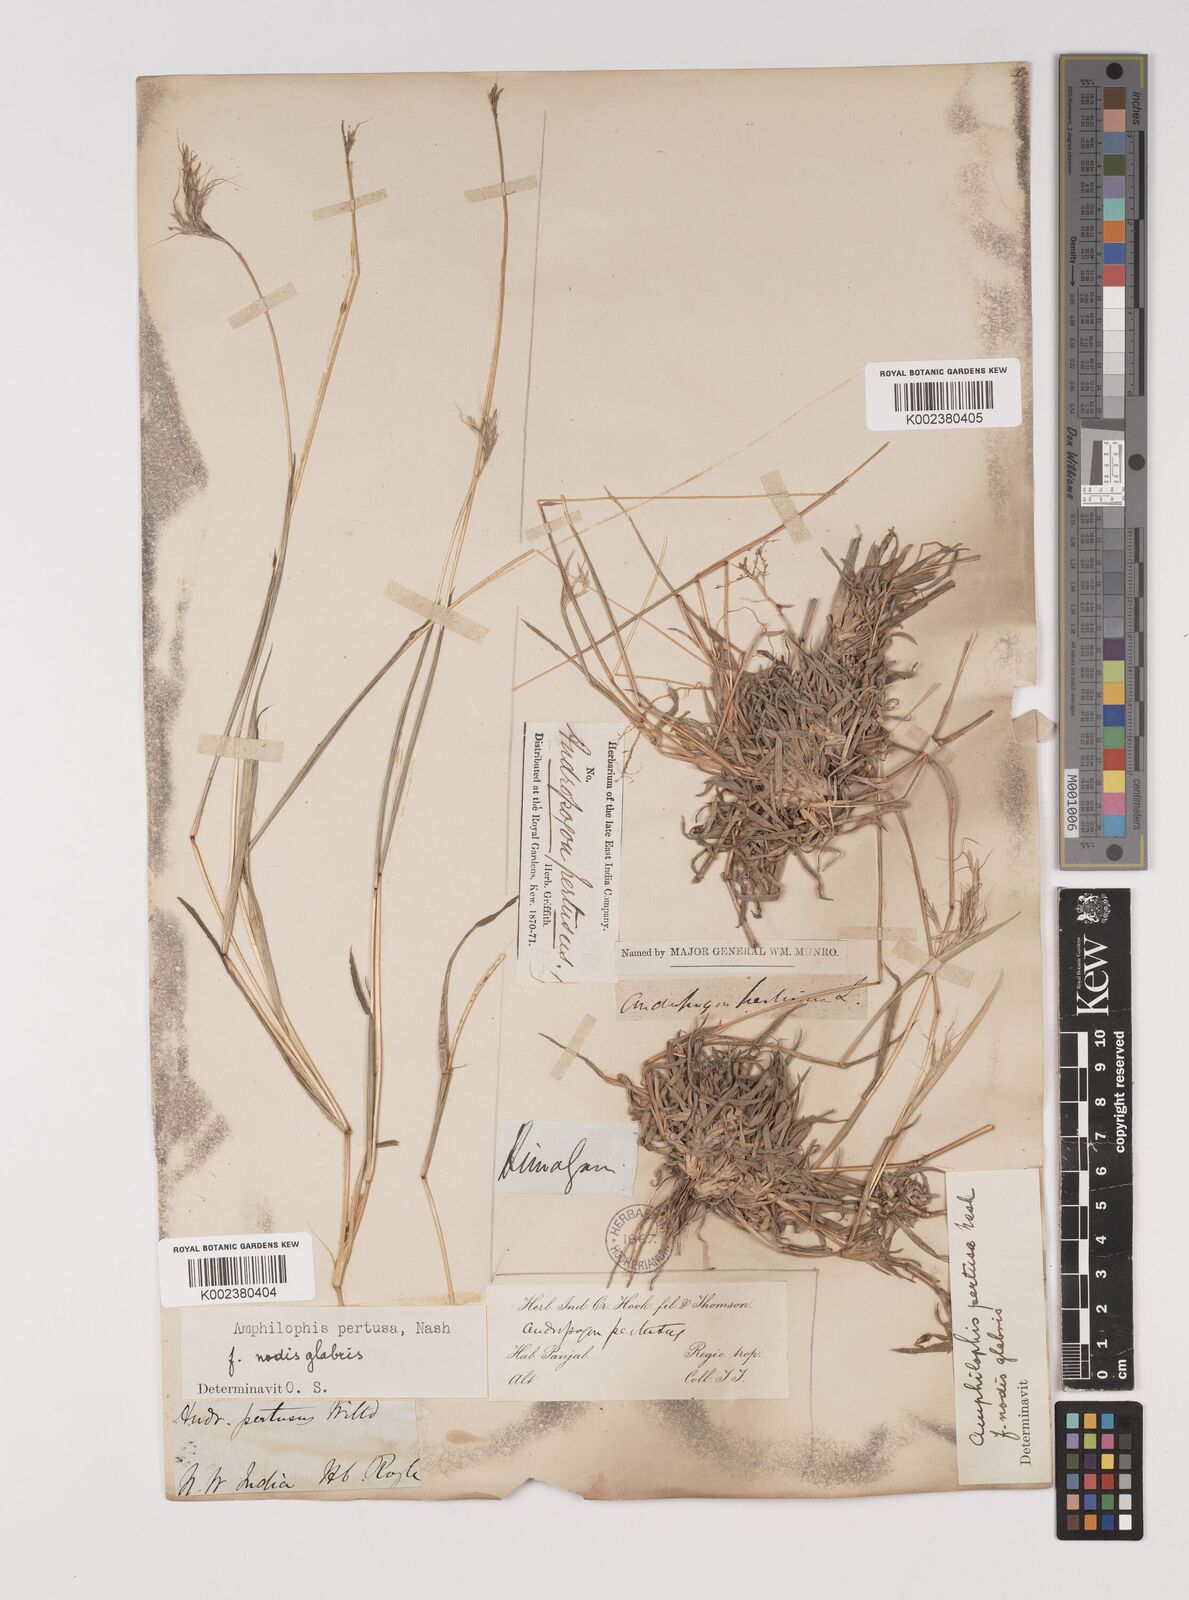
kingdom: Plantae
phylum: Tracheophyta
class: Liliopsida
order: Poales
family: Poaceae
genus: Bothriochloa
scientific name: Bothriochloa pertusa
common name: Pitted beardgrass
